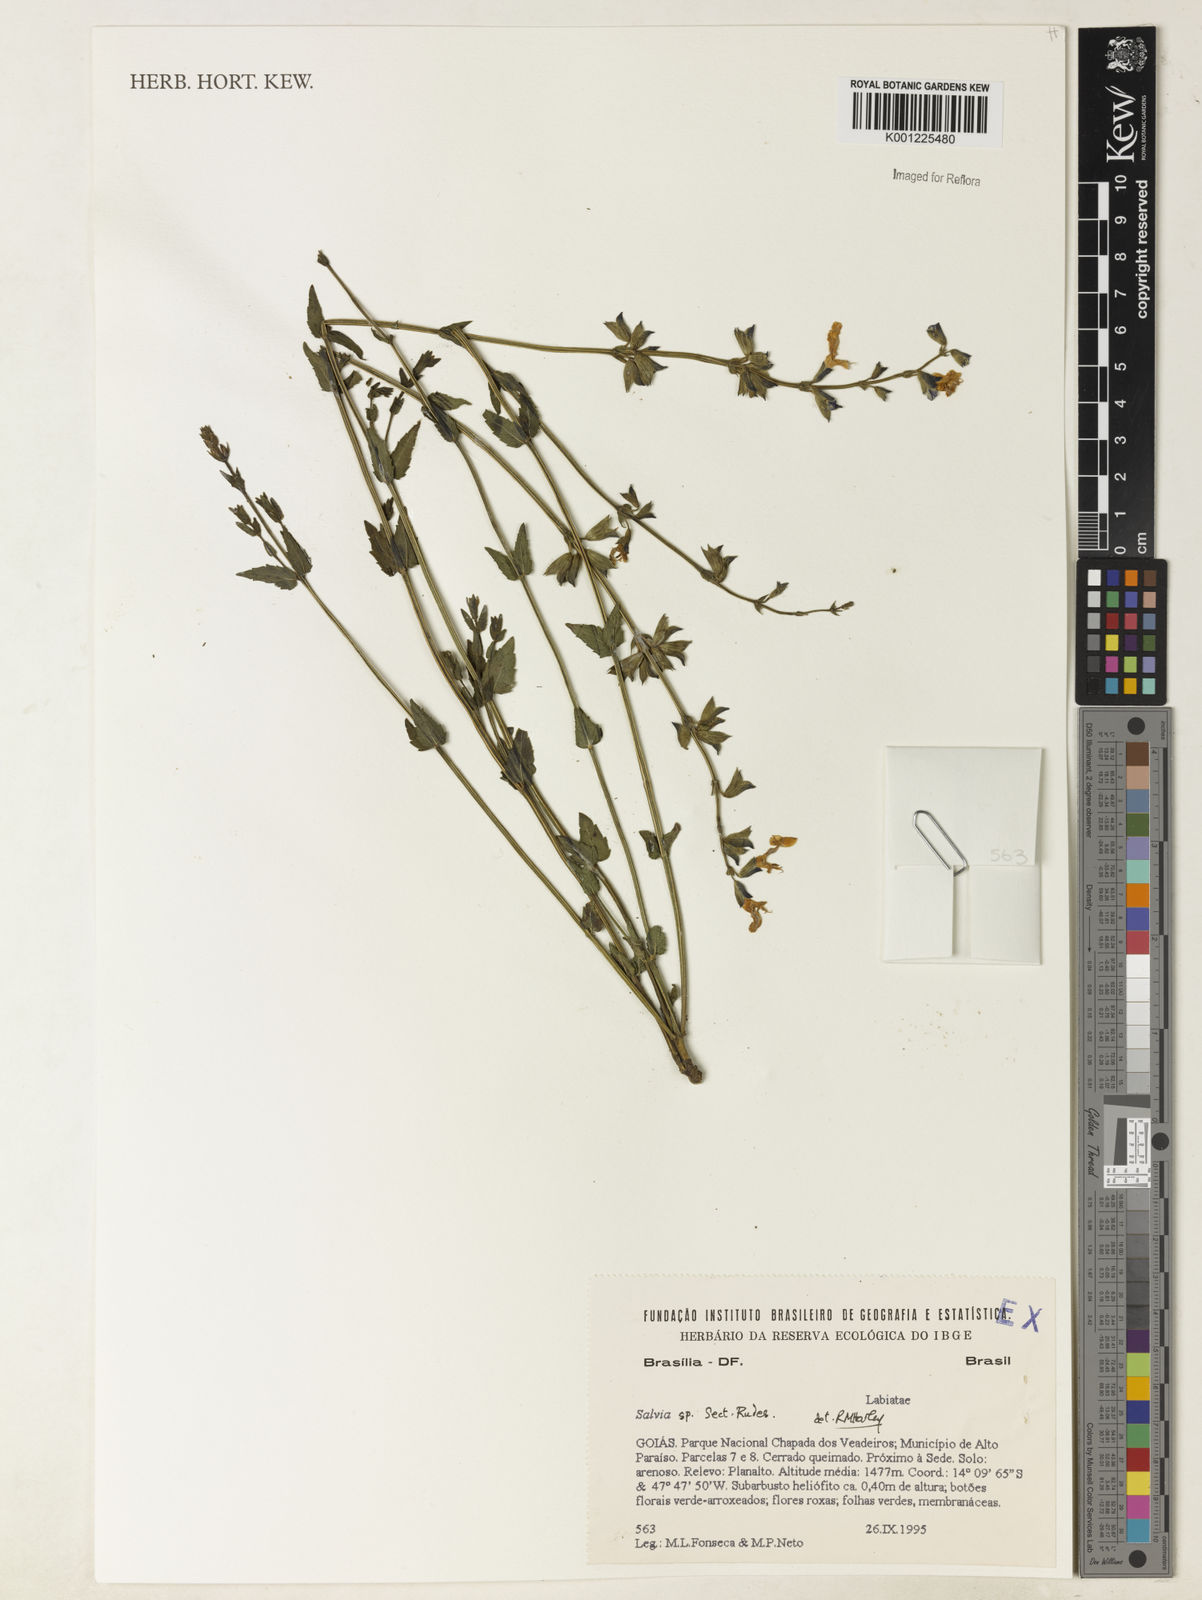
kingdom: Plantae
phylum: Tracheophyta
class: Magnoliopsida
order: Lamiales
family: Lamiaceae
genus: Salvia
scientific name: Salvia
